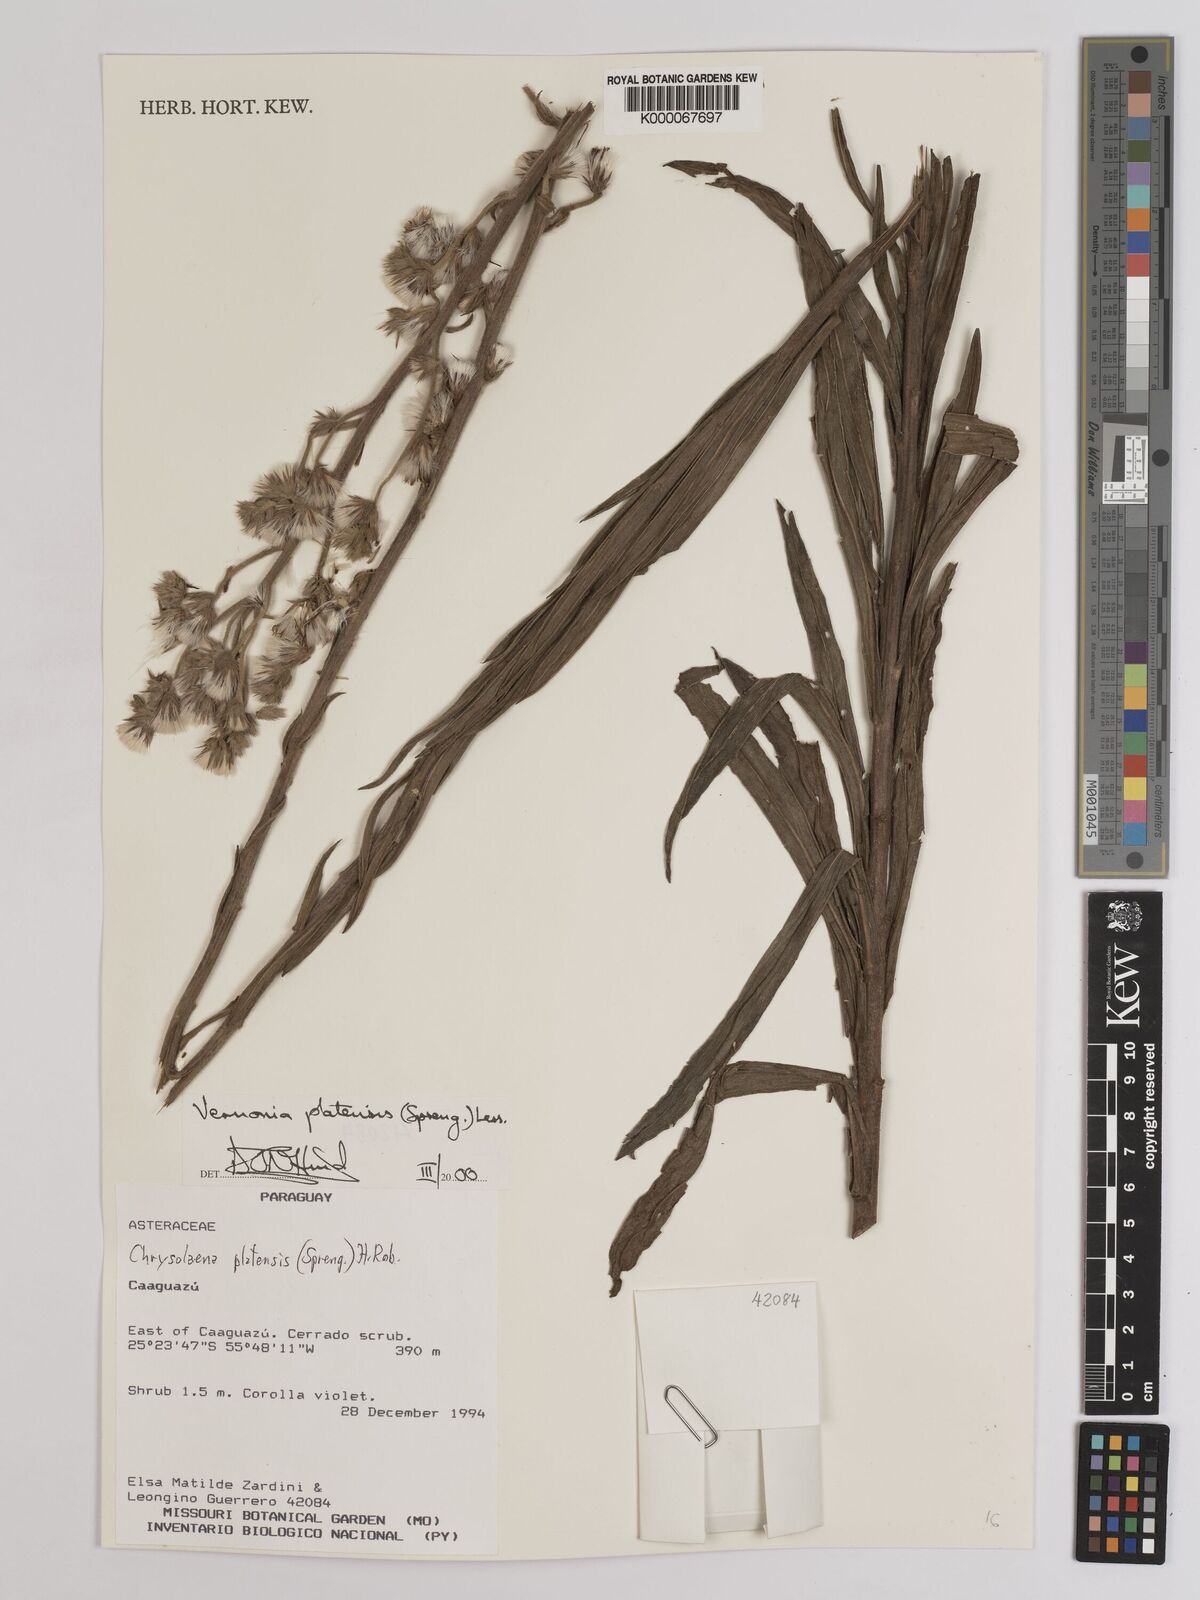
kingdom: Plantae
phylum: Tracheophyta
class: Magnoliopsida
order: Asterales
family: Asteraceae
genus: Chrysolaena
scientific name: Chrysolaena platensis
